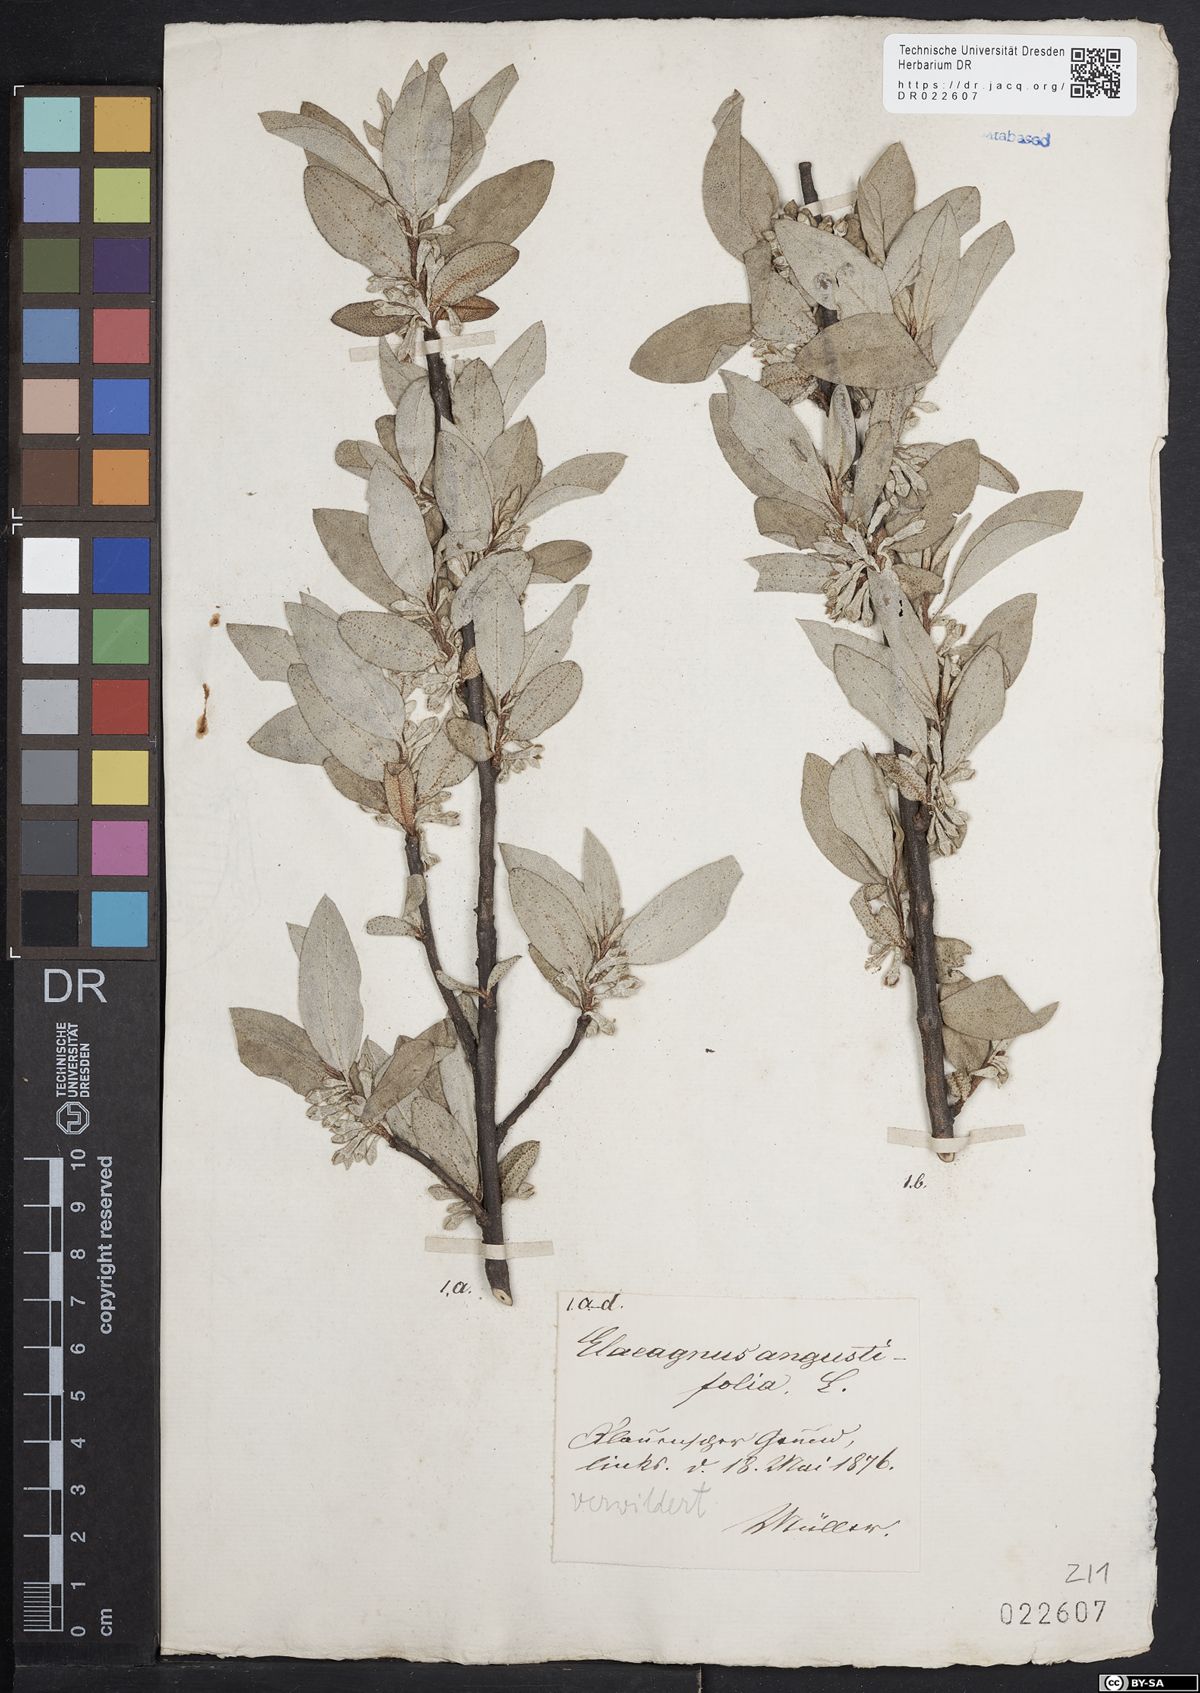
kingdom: Plantae
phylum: Tracheophyta
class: Magnoliopsida
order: Rosales
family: Elaeagnaceae
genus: Elaeagnus
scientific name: Elaeagnus angustifolia
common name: Russian olive
